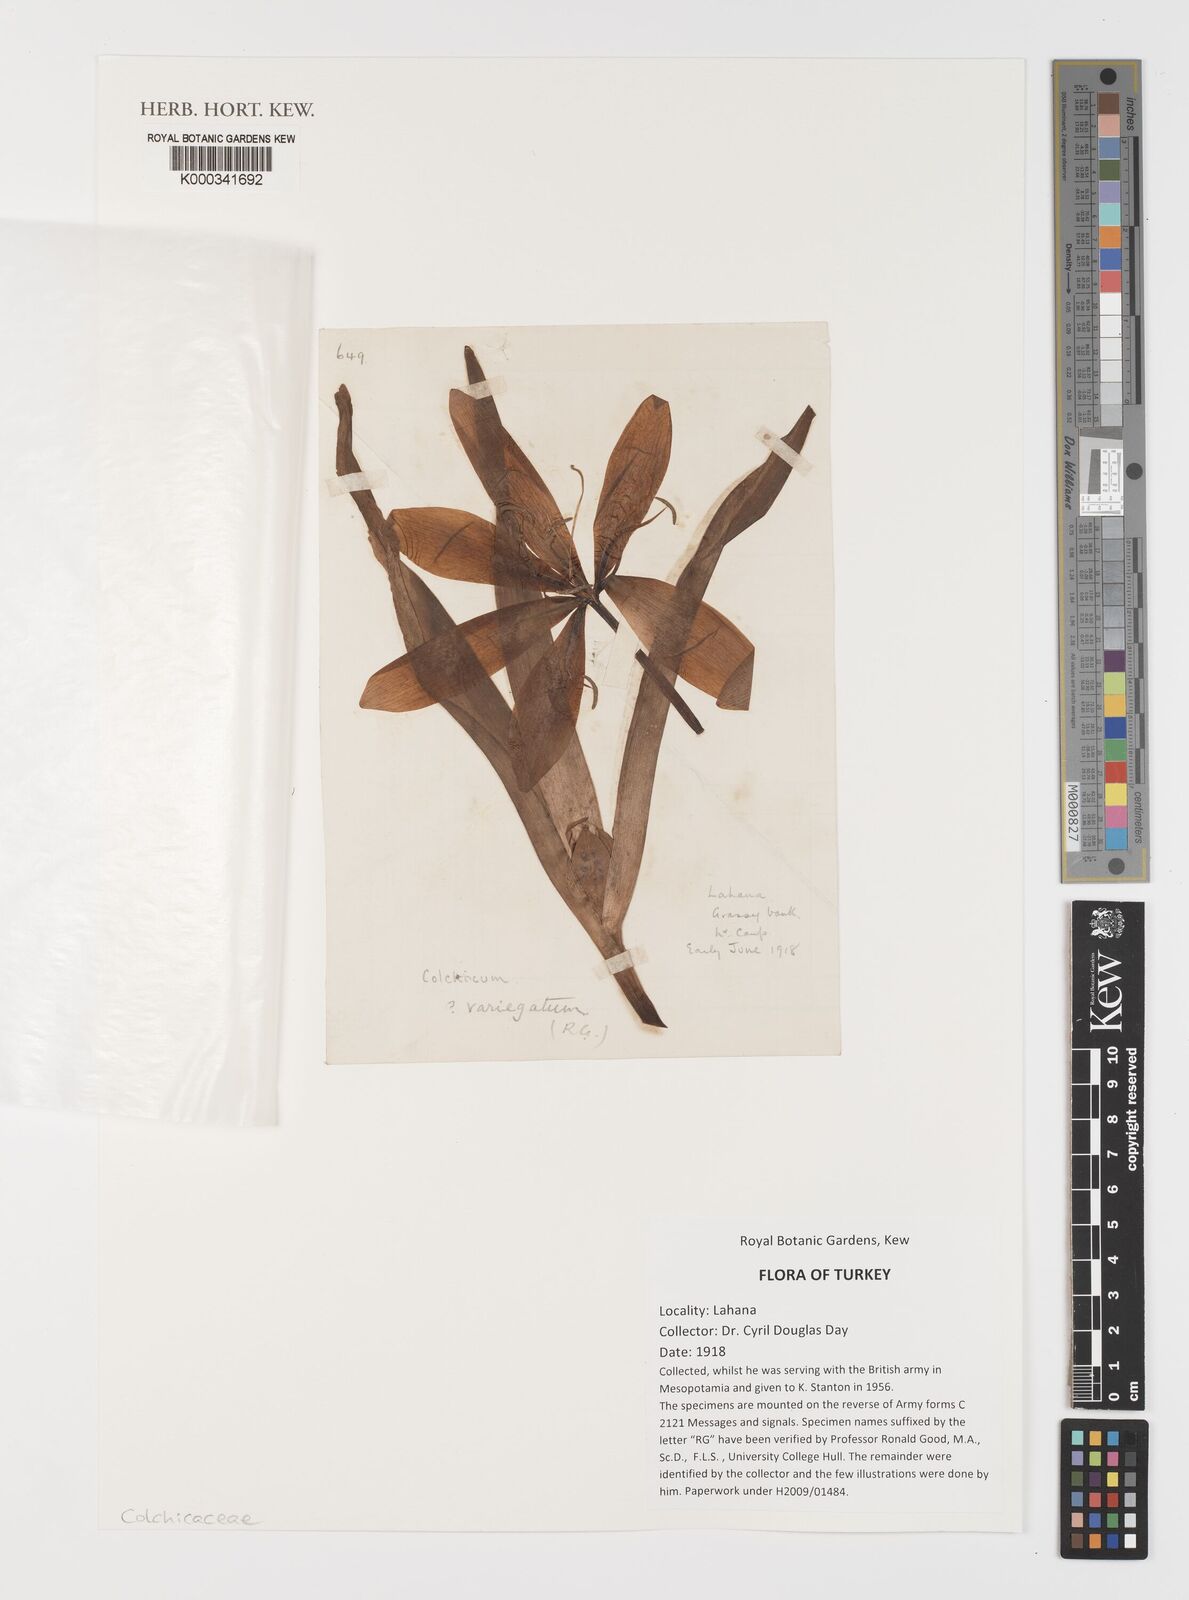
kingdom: Plantae
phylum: Tracheophyta
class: Liliopsida
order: Liliales
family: Colchicaceae
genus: Colchicum
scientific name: Colchicum variegatum
